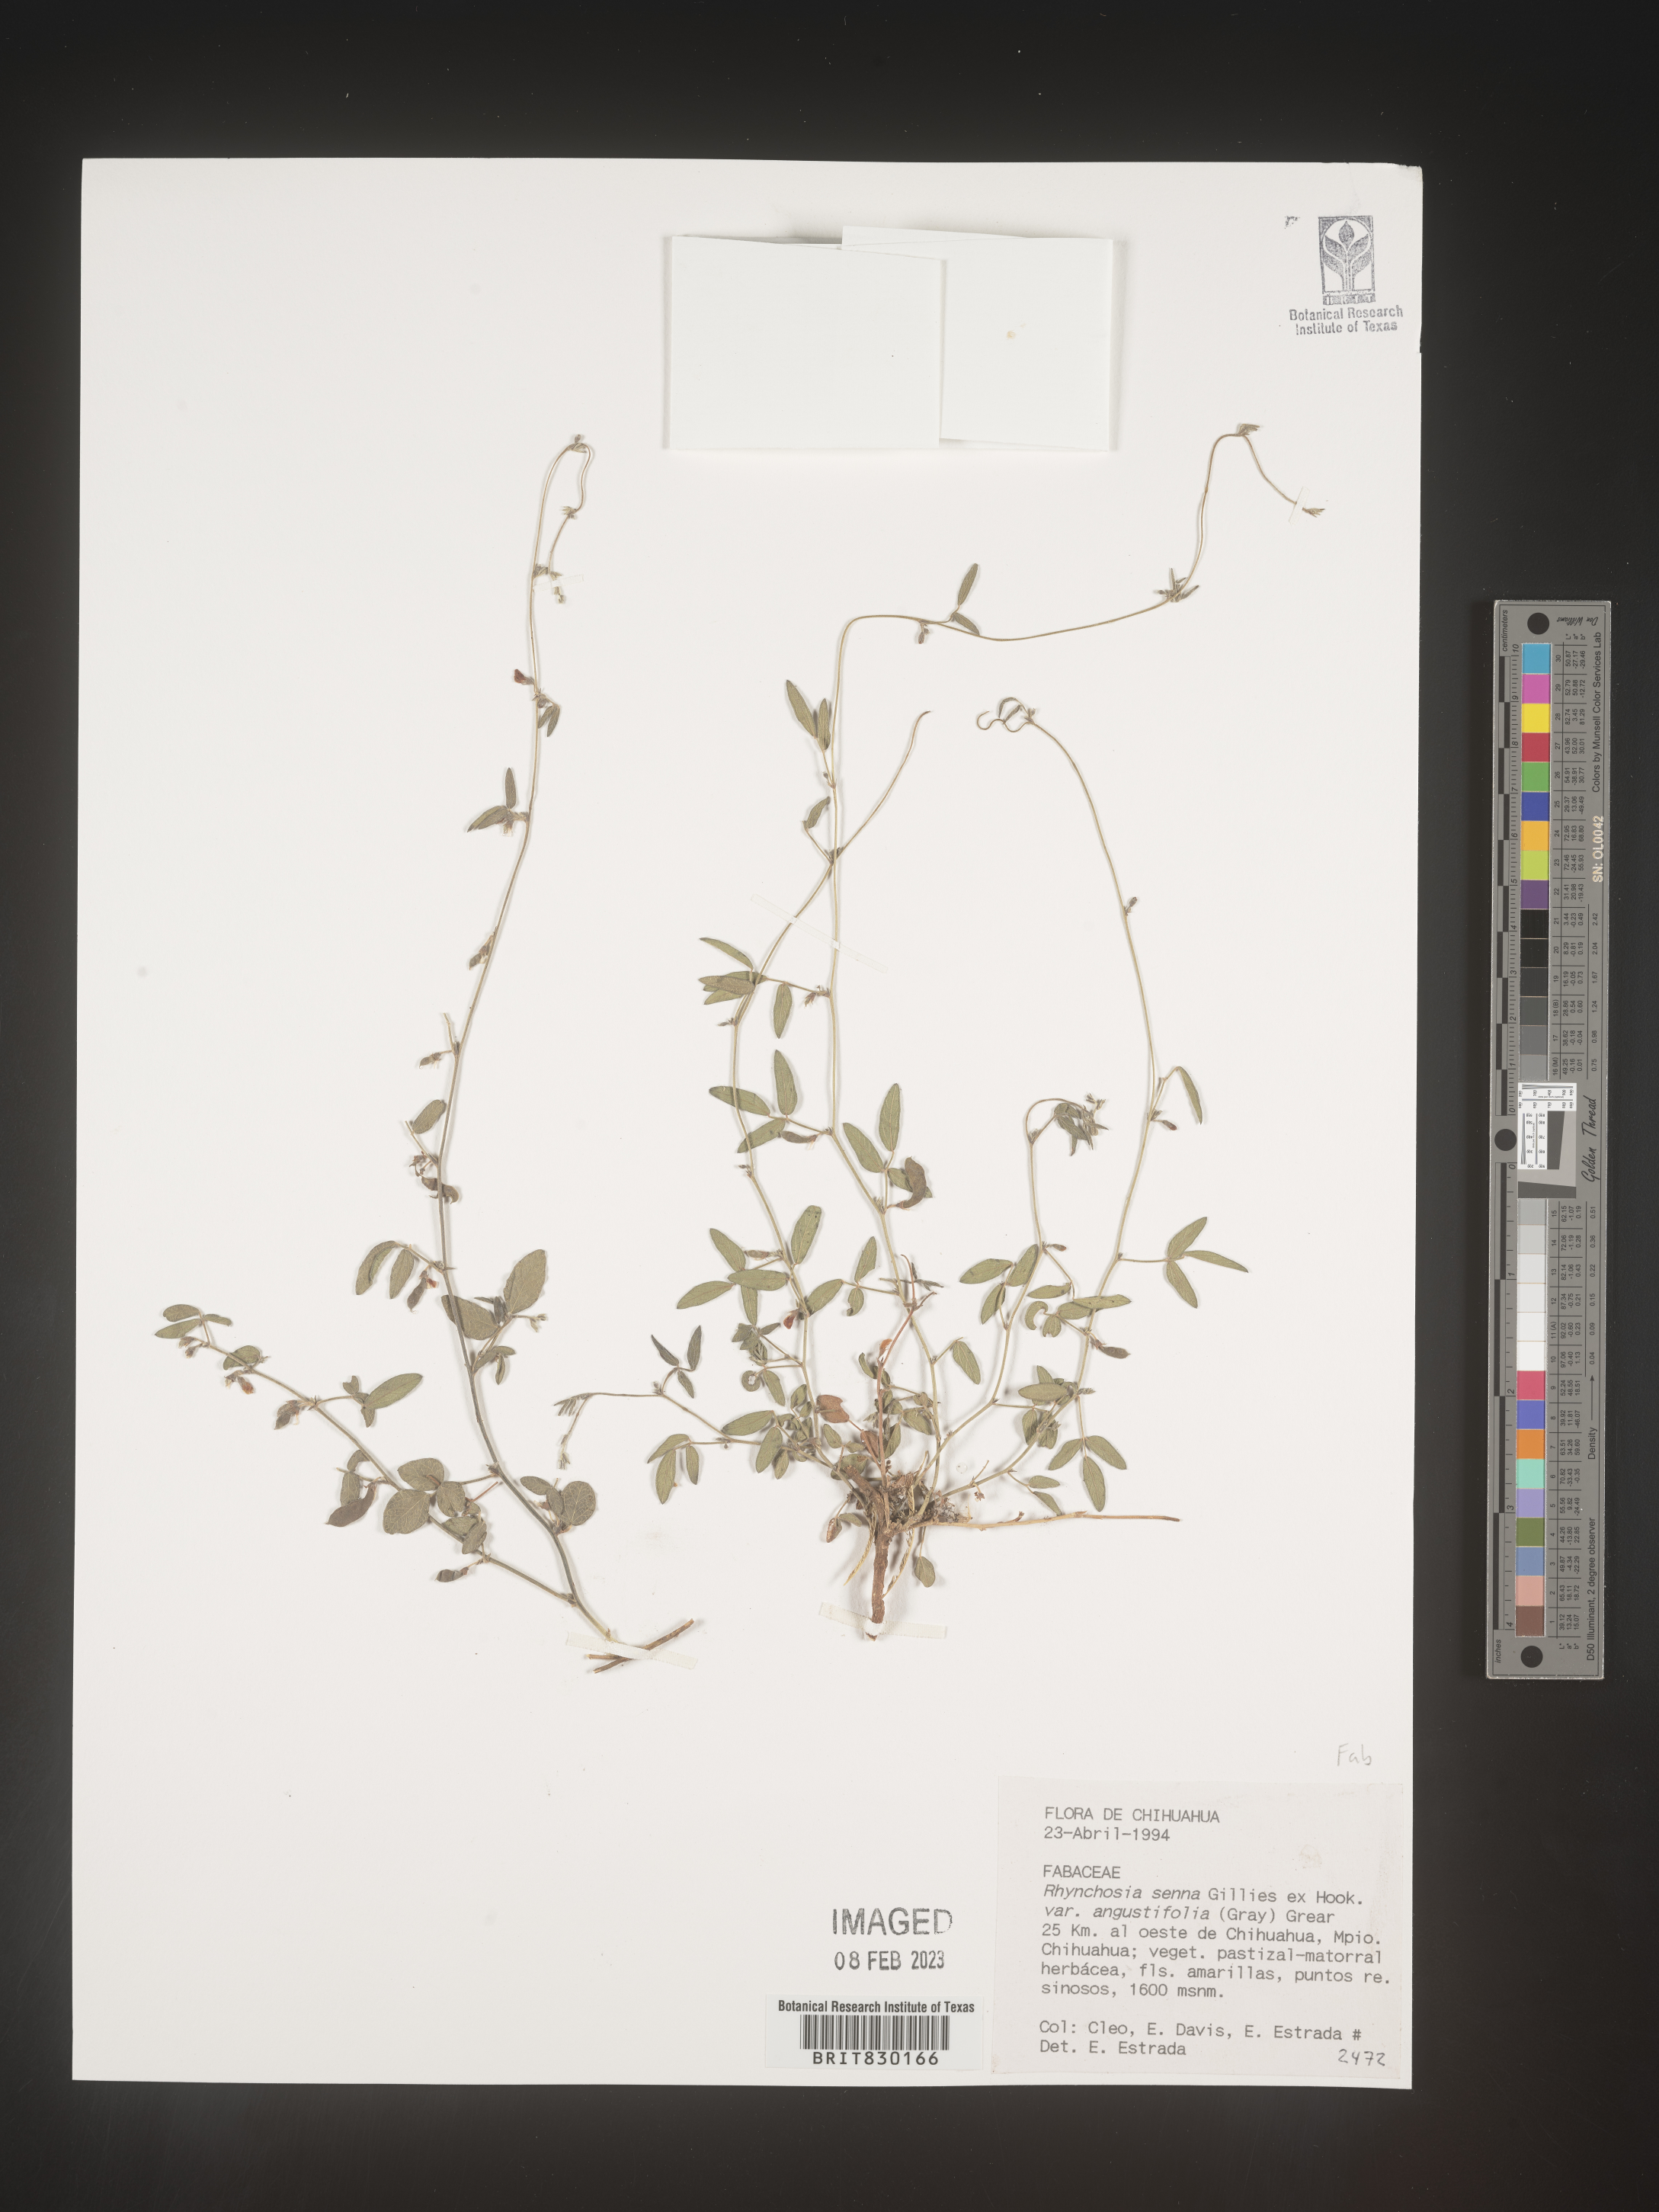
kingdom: Plantae
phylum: Tracheophyta
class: Magnoliopsida
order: Fabales
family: Fabaceae
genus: Rhynchosia
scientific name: Rhynchosia
